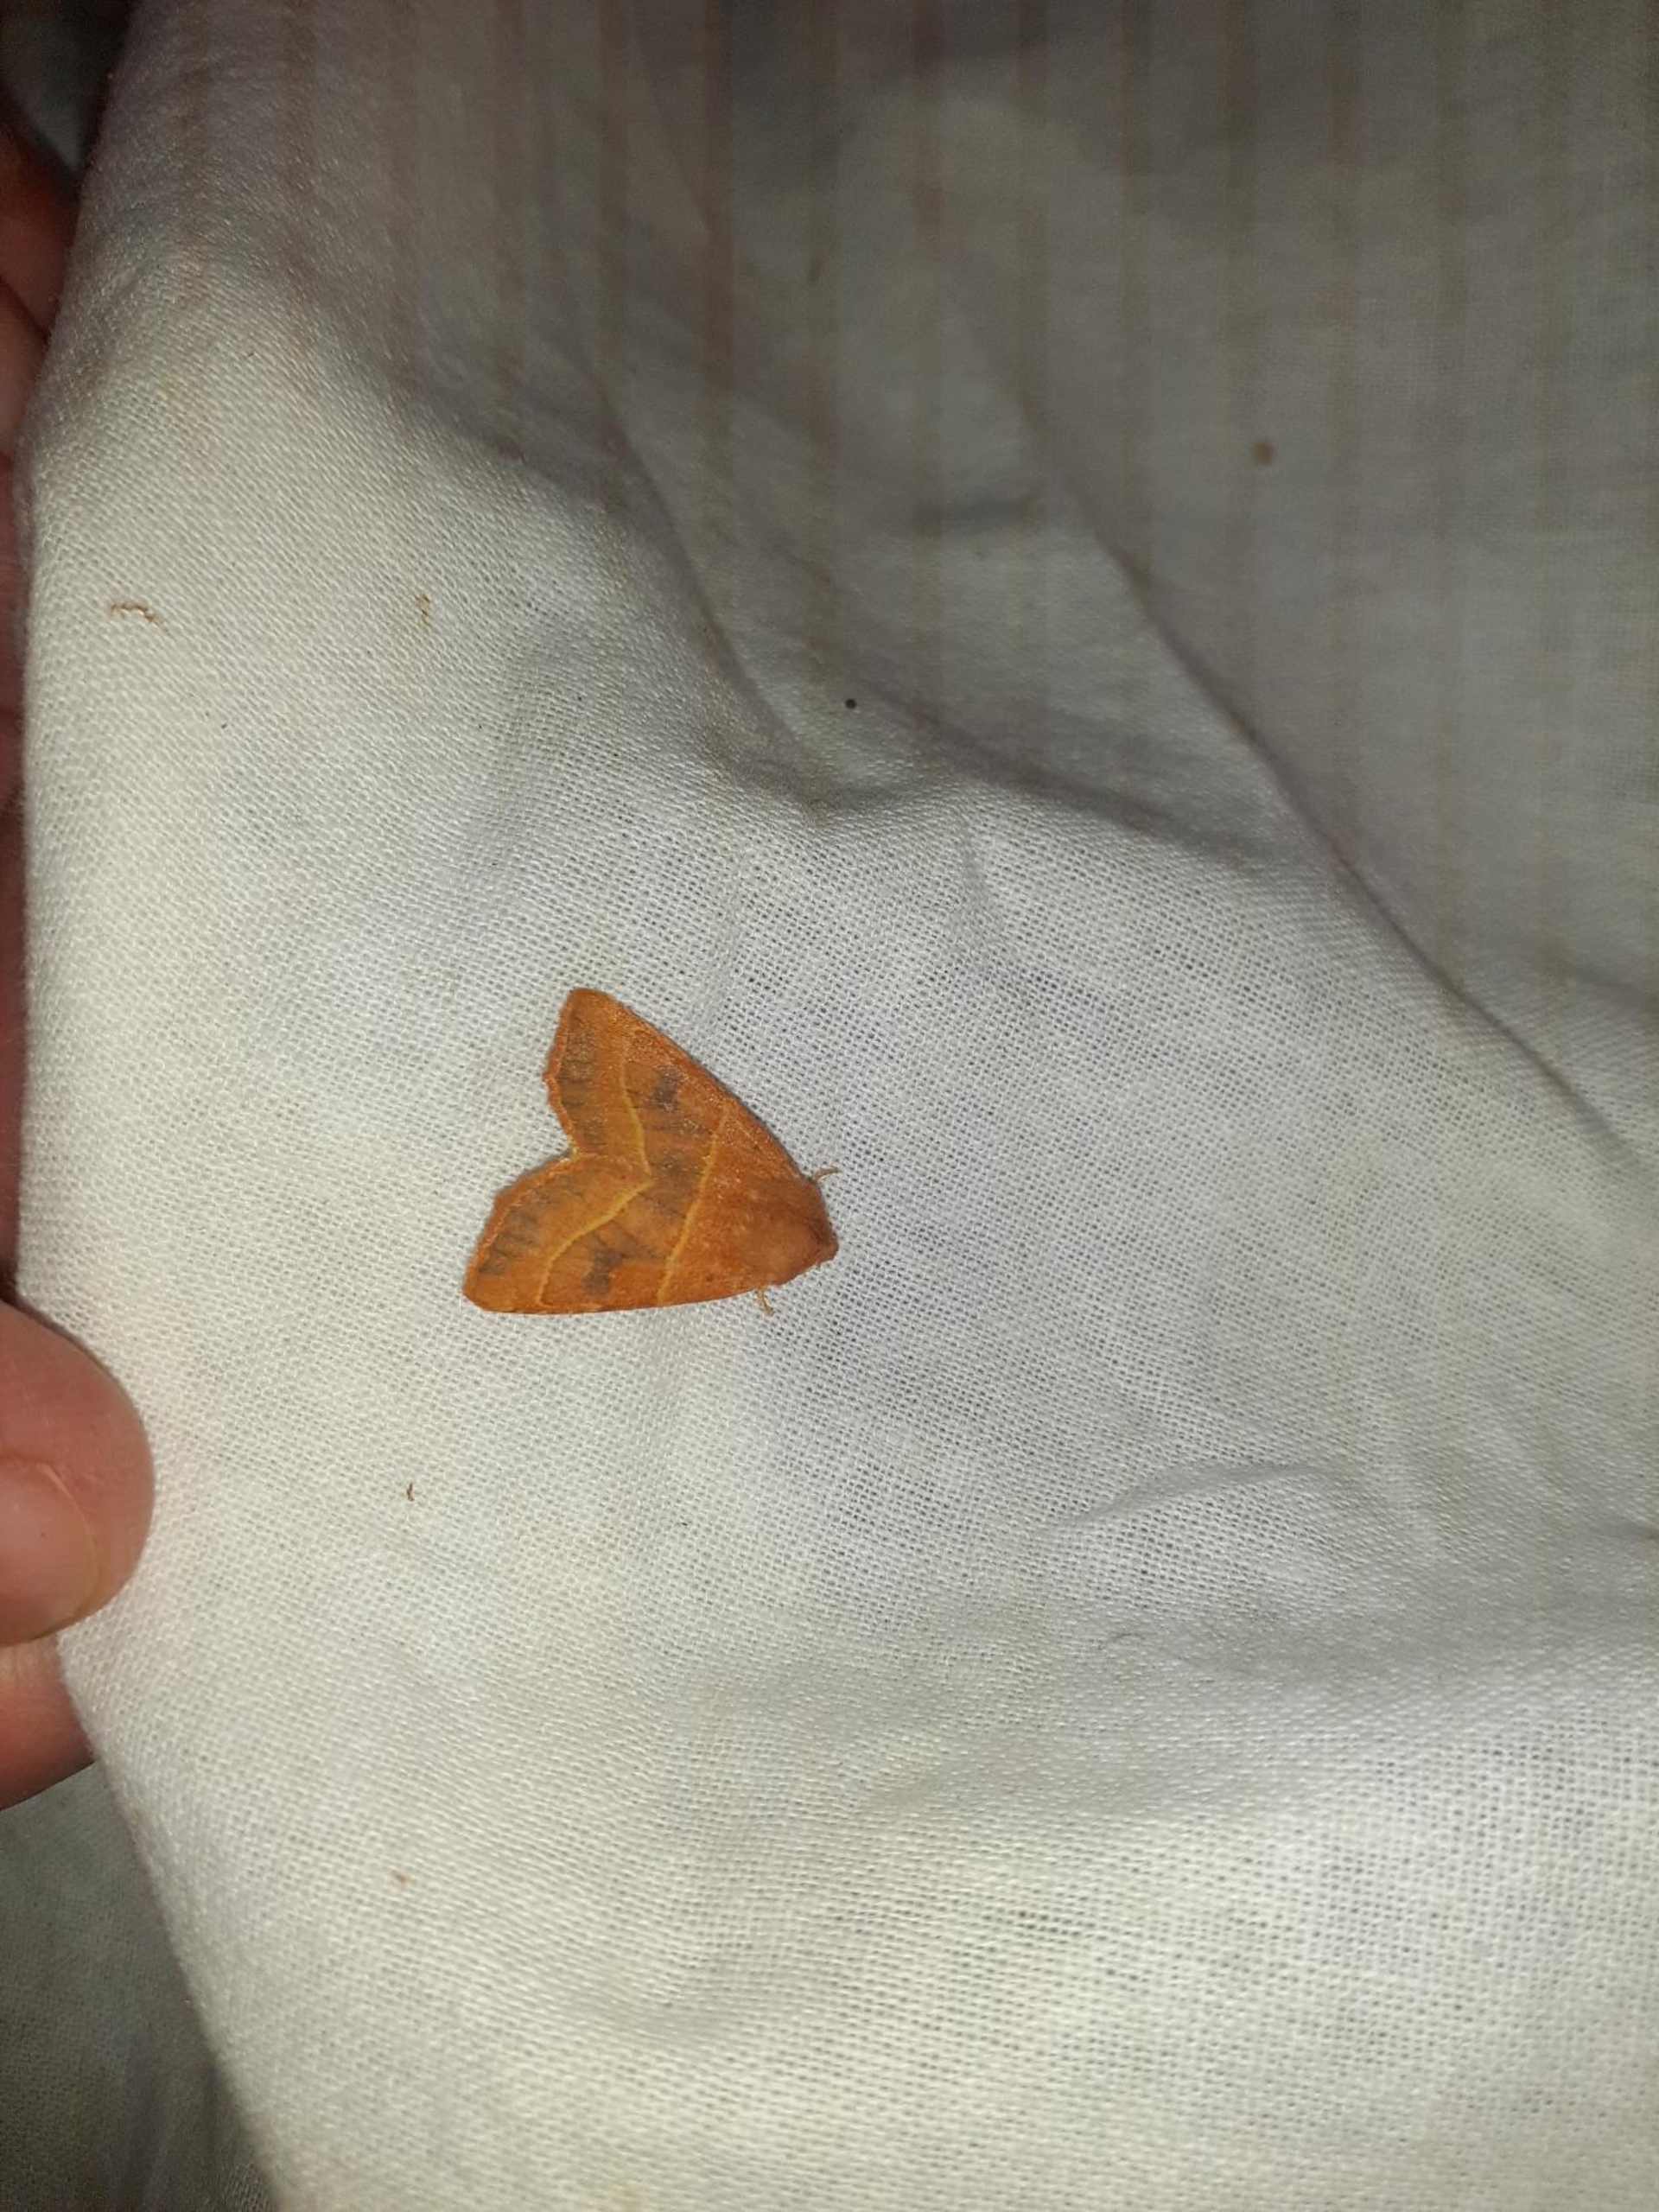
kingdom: Animalia
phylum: Arthropoda
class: Insecta
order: Lepidoptera
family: Noctuidae
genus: Atethmia
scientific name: Atethmia centrago
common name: Aske-septemberugle
